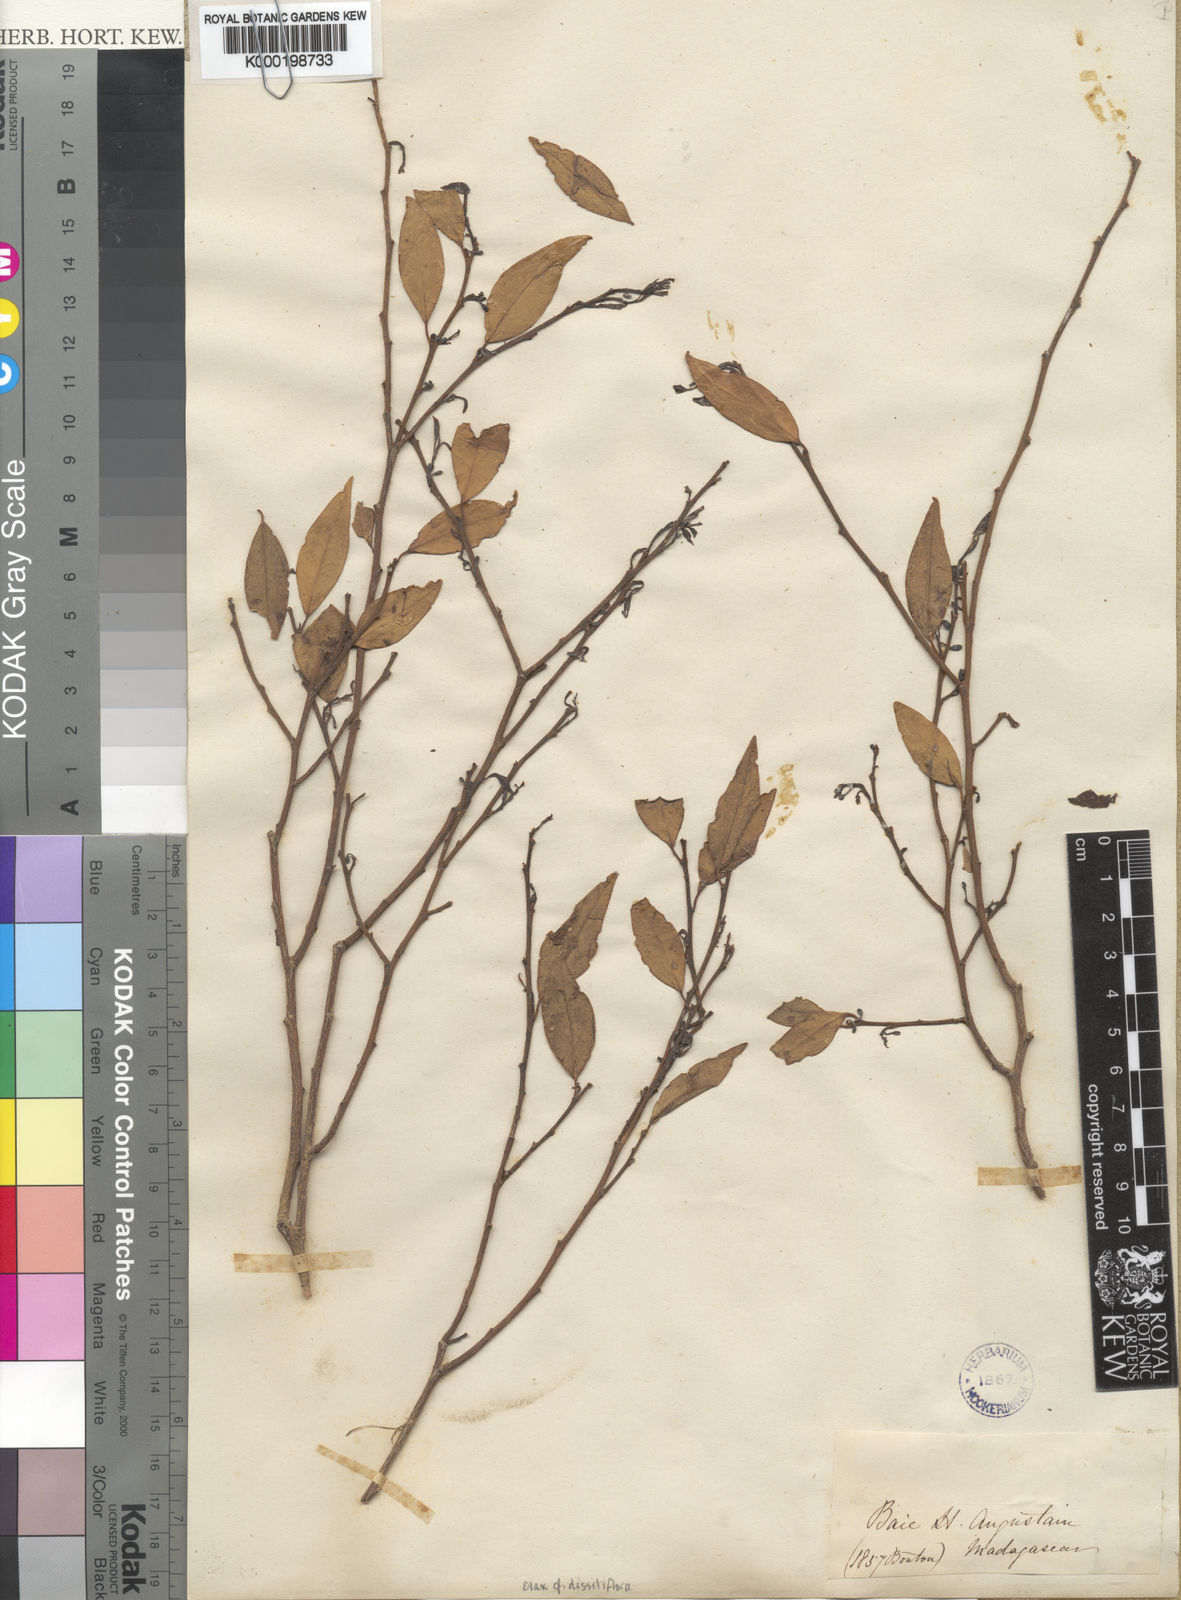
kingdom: Plantae
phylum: Tracheophyta
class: Magnoliopsida
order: Santalales
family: Olacaceae
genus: Olax
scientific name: Olax dissitiflora
